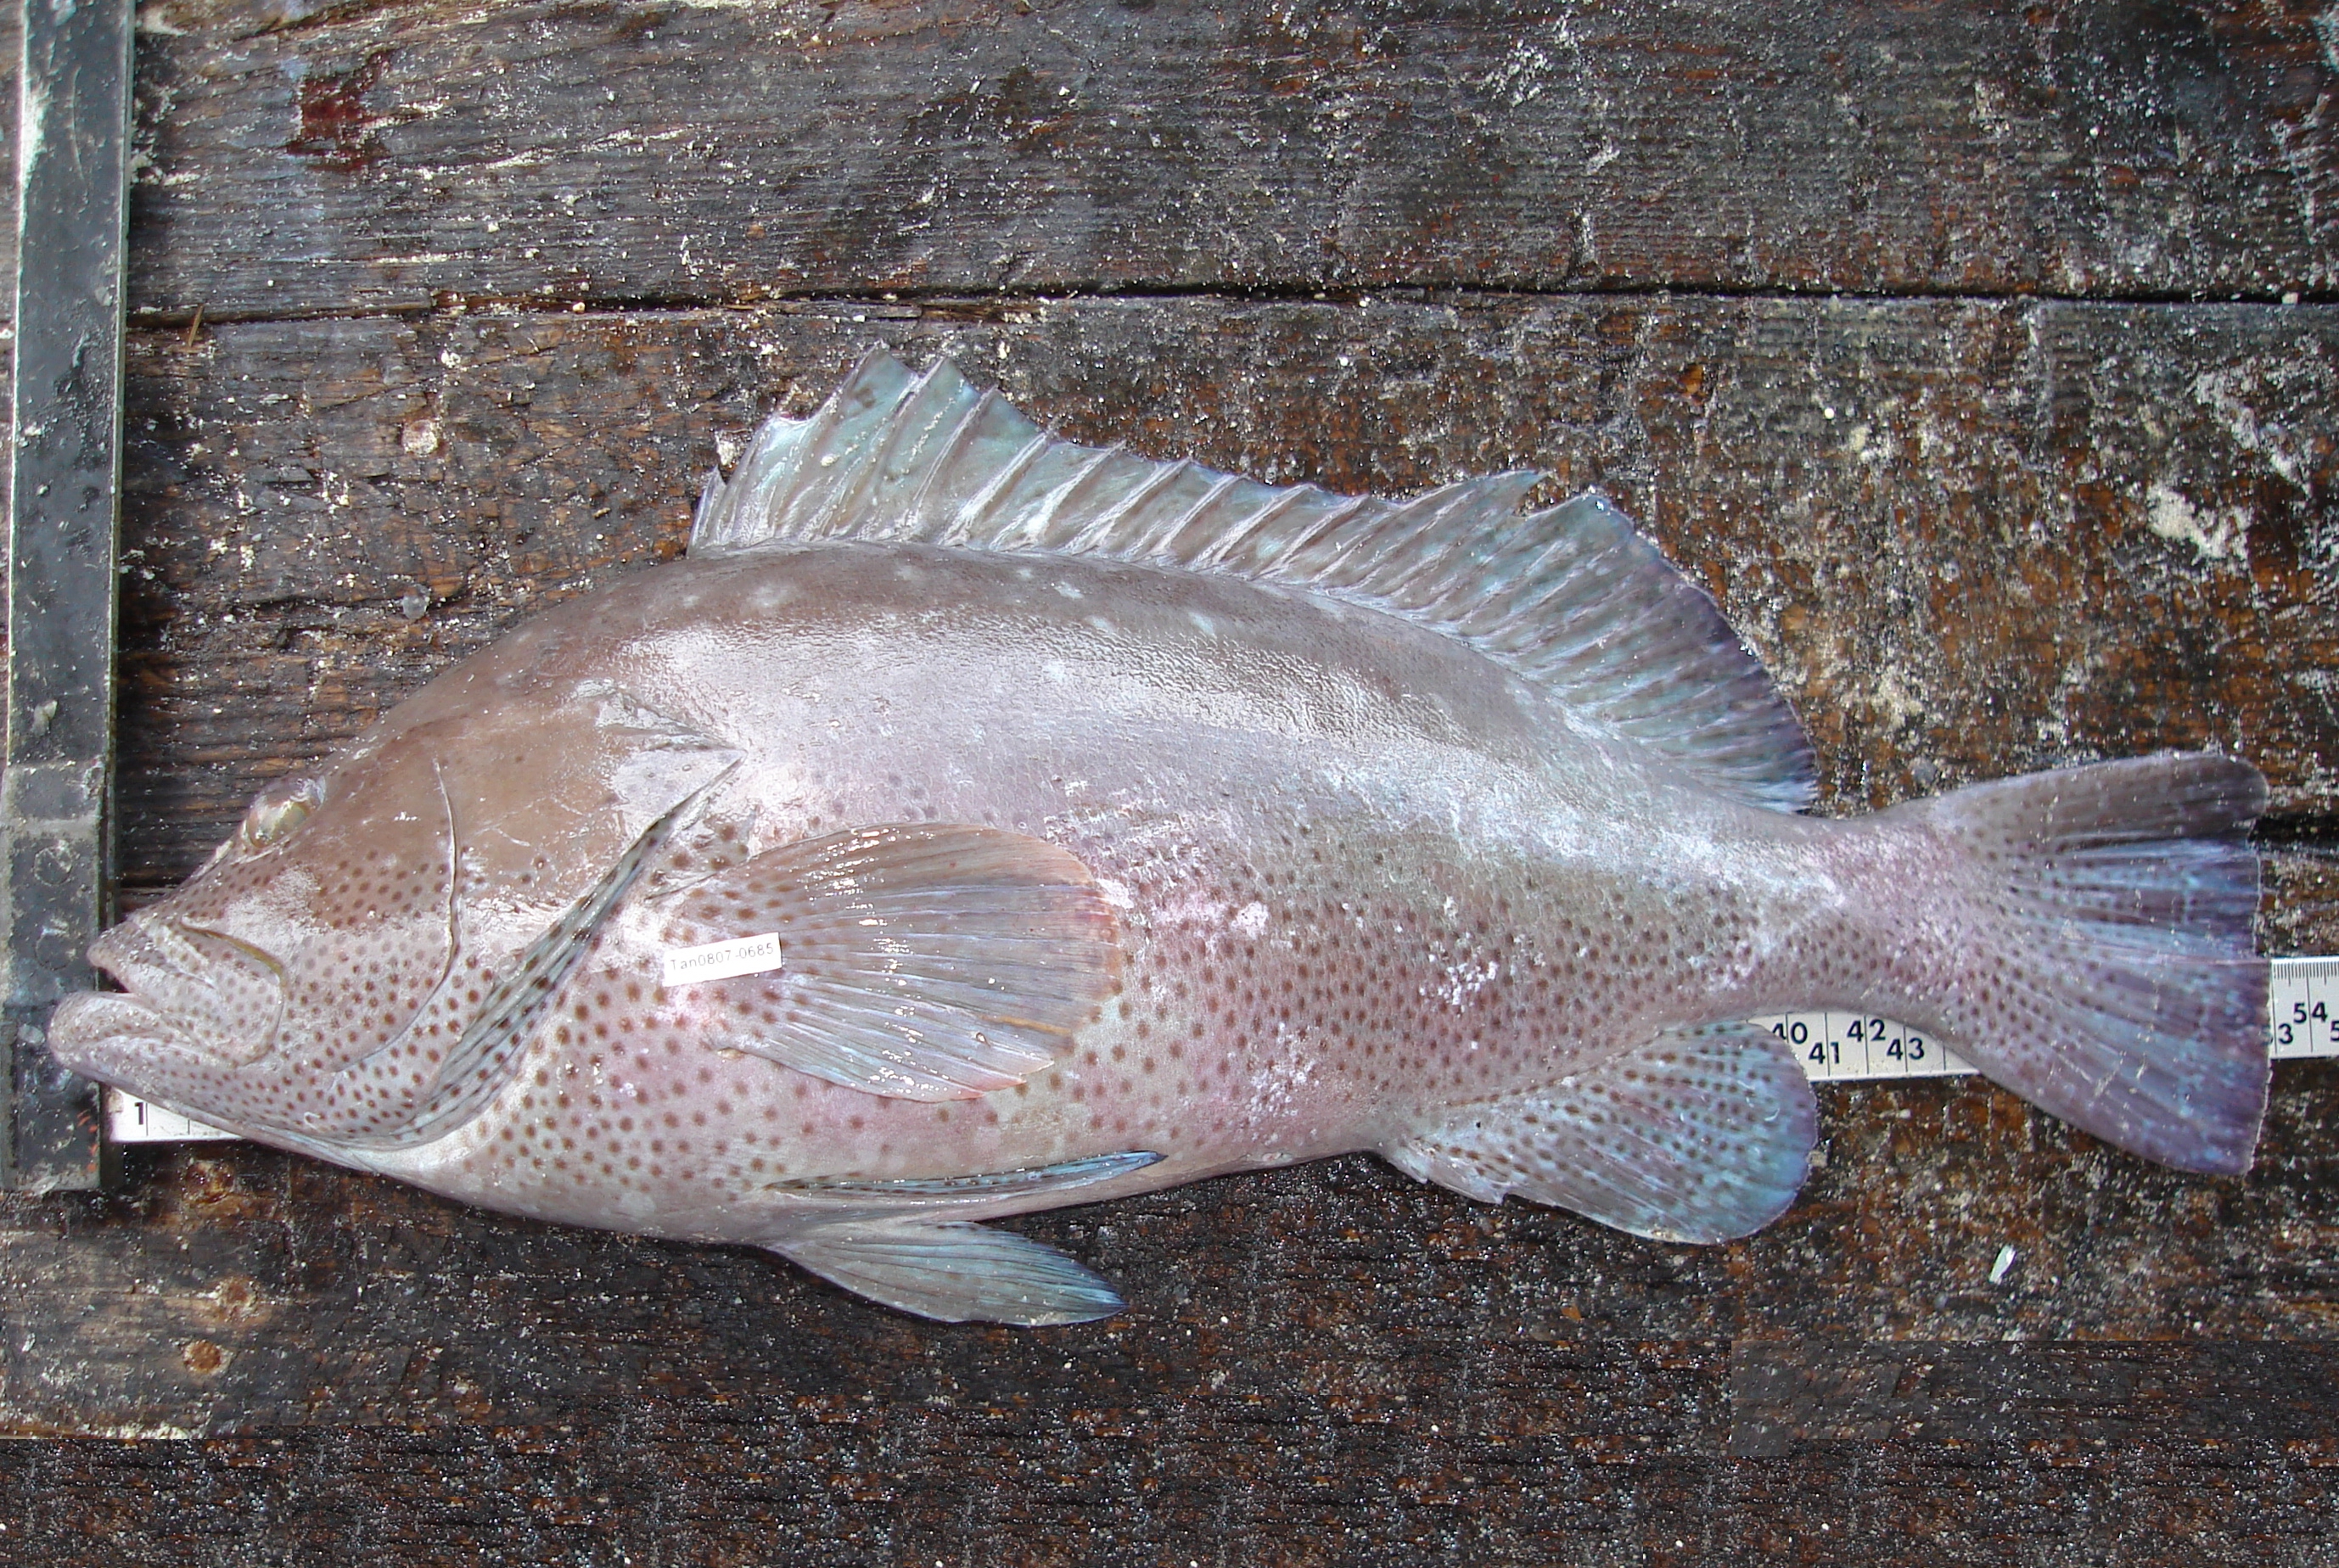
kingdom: Animalia
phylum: Chordata
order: Perciformes
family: Serranidae
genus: Epinephelus
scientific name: Epinephelus multinotatus
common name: Rankin's cod
